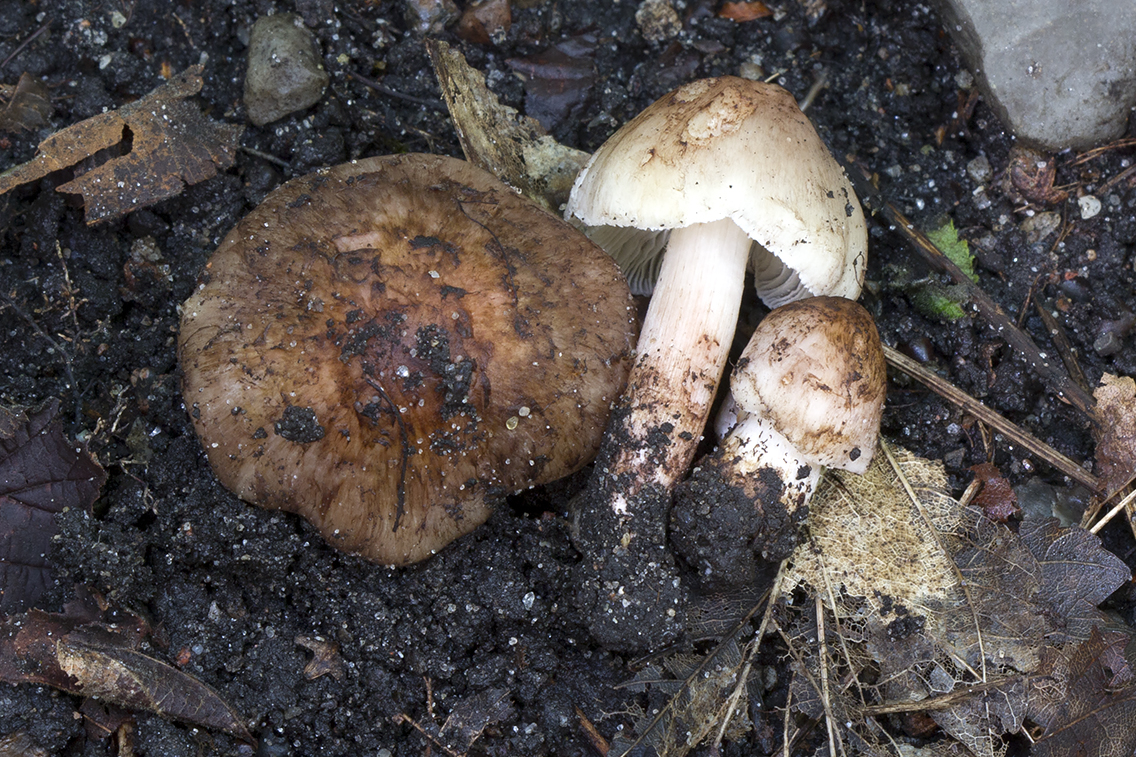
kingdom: Fungi
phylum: Basidiomycota
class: Agaricomycetes
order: Agaricales
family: Inocybaceae
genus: Inosperma
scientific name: Inosperma adaequatum
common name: vinrød trævlhat
